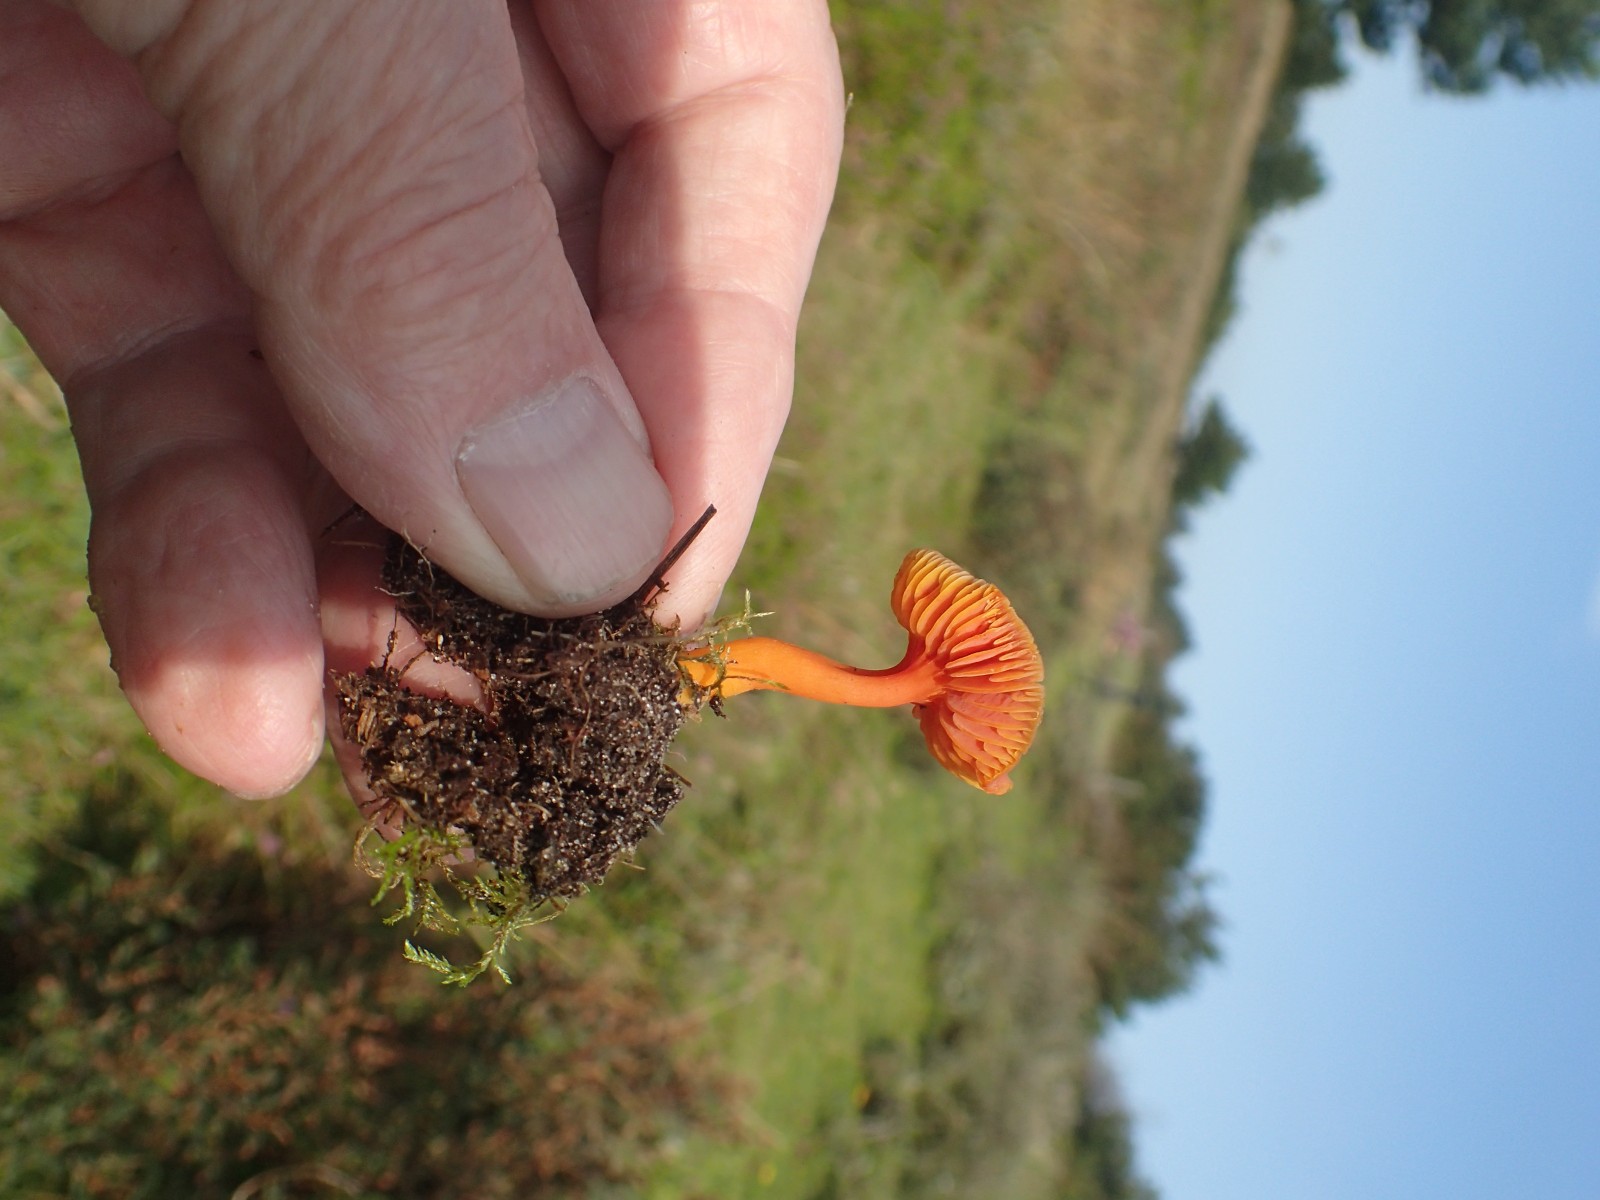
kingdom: Fungi
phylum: Basidiomycota
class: Agaricomycetes
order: Agaricales
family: Hygrophoraceae
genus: Hygrocybe
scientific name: Hygrocybe miniata
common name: mønje-vokshat
